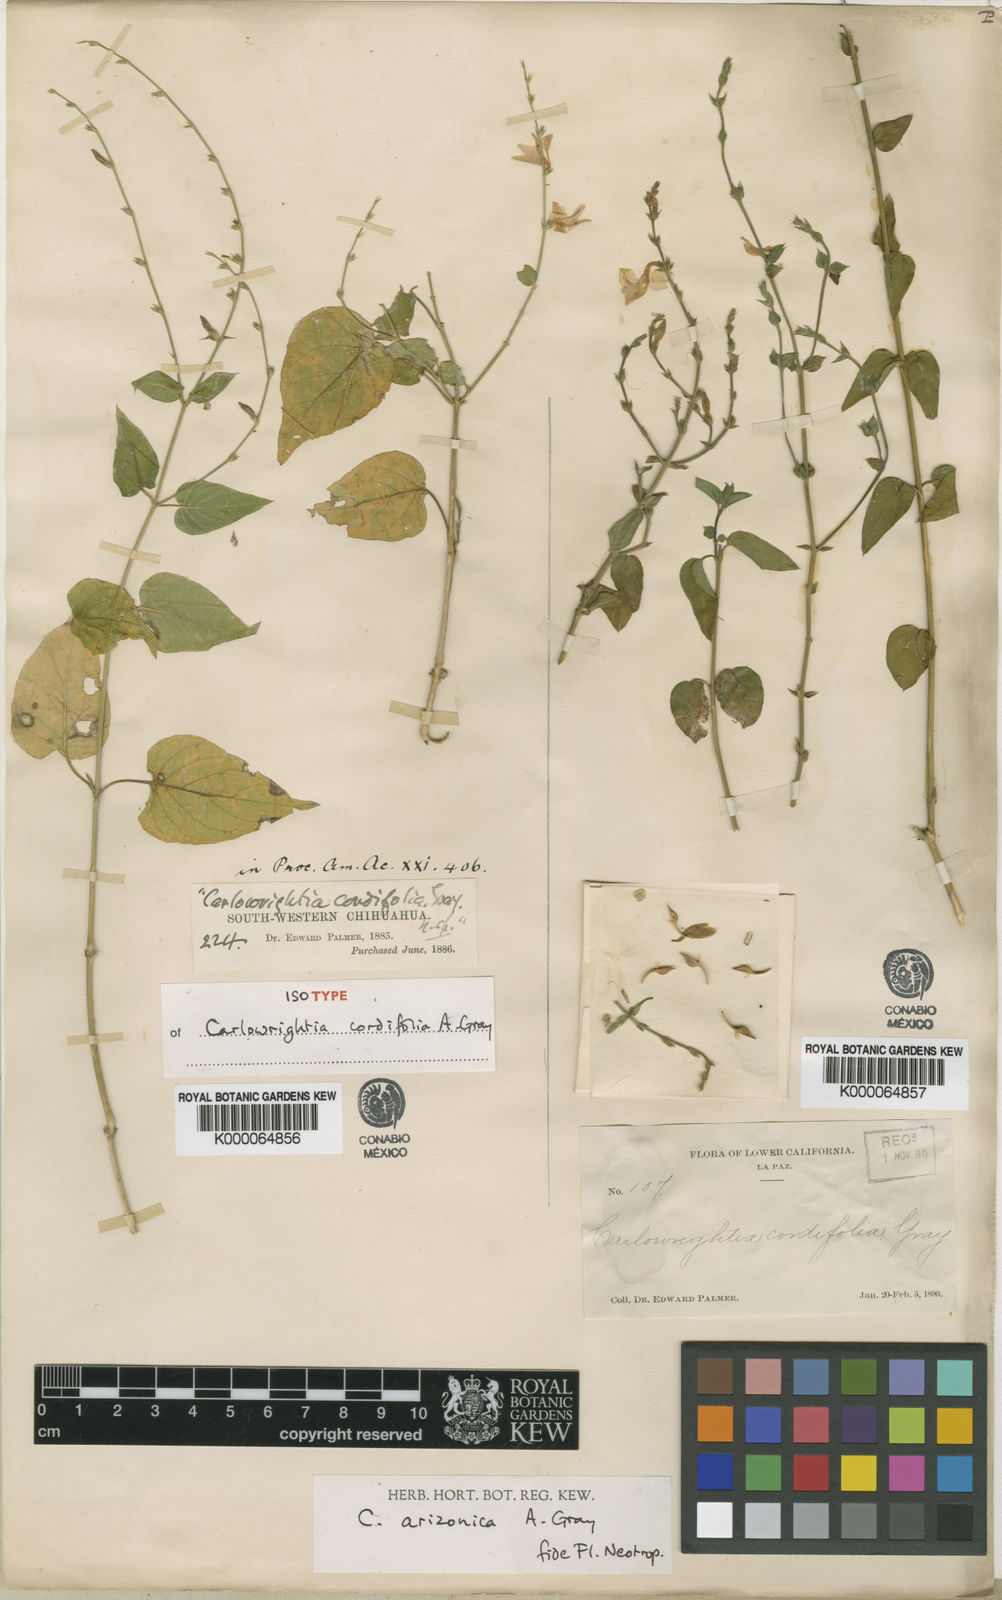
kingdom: Plantae
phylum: Tracheophyta
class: Magnoliopsida
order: Lamiales
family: Acanthaceae
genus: Carlowrightia
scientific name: Carlowrightia arizonica
